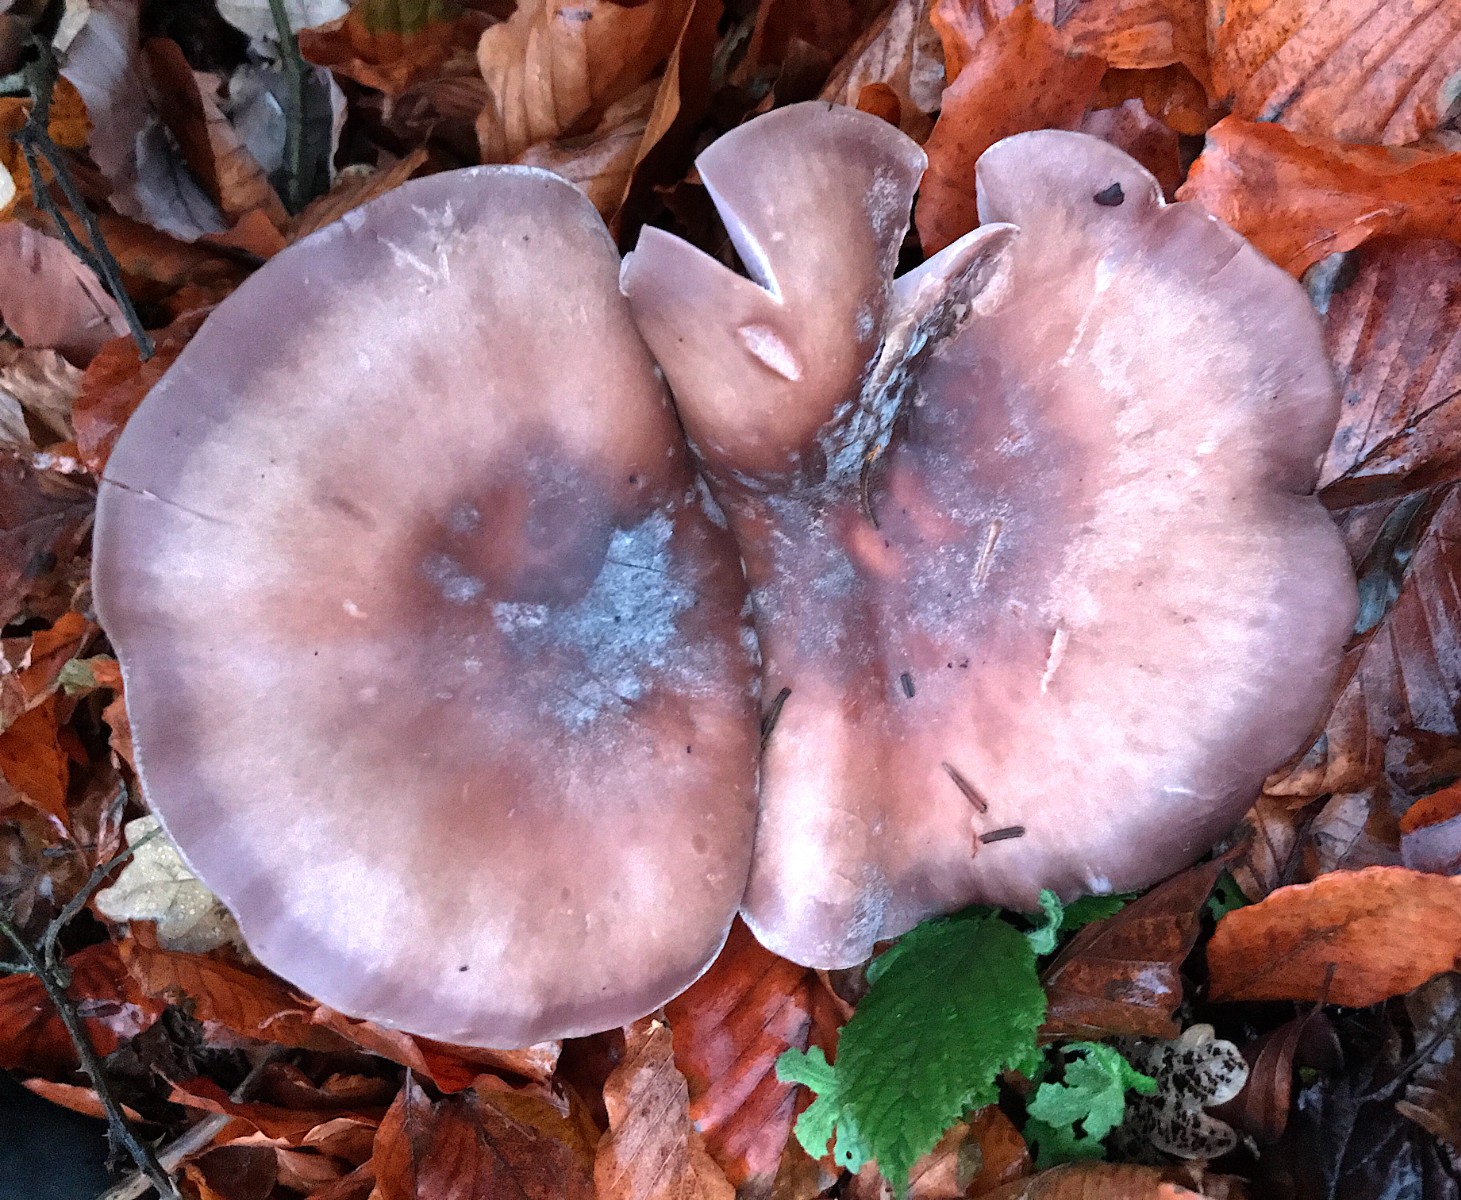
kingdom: Fungi
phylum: Basidiomycota
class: Agaricomycetes
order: Agaricales
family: Tricholomataceae
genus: Lepista
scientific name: Lepista nuda
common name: violet hekseringshat
